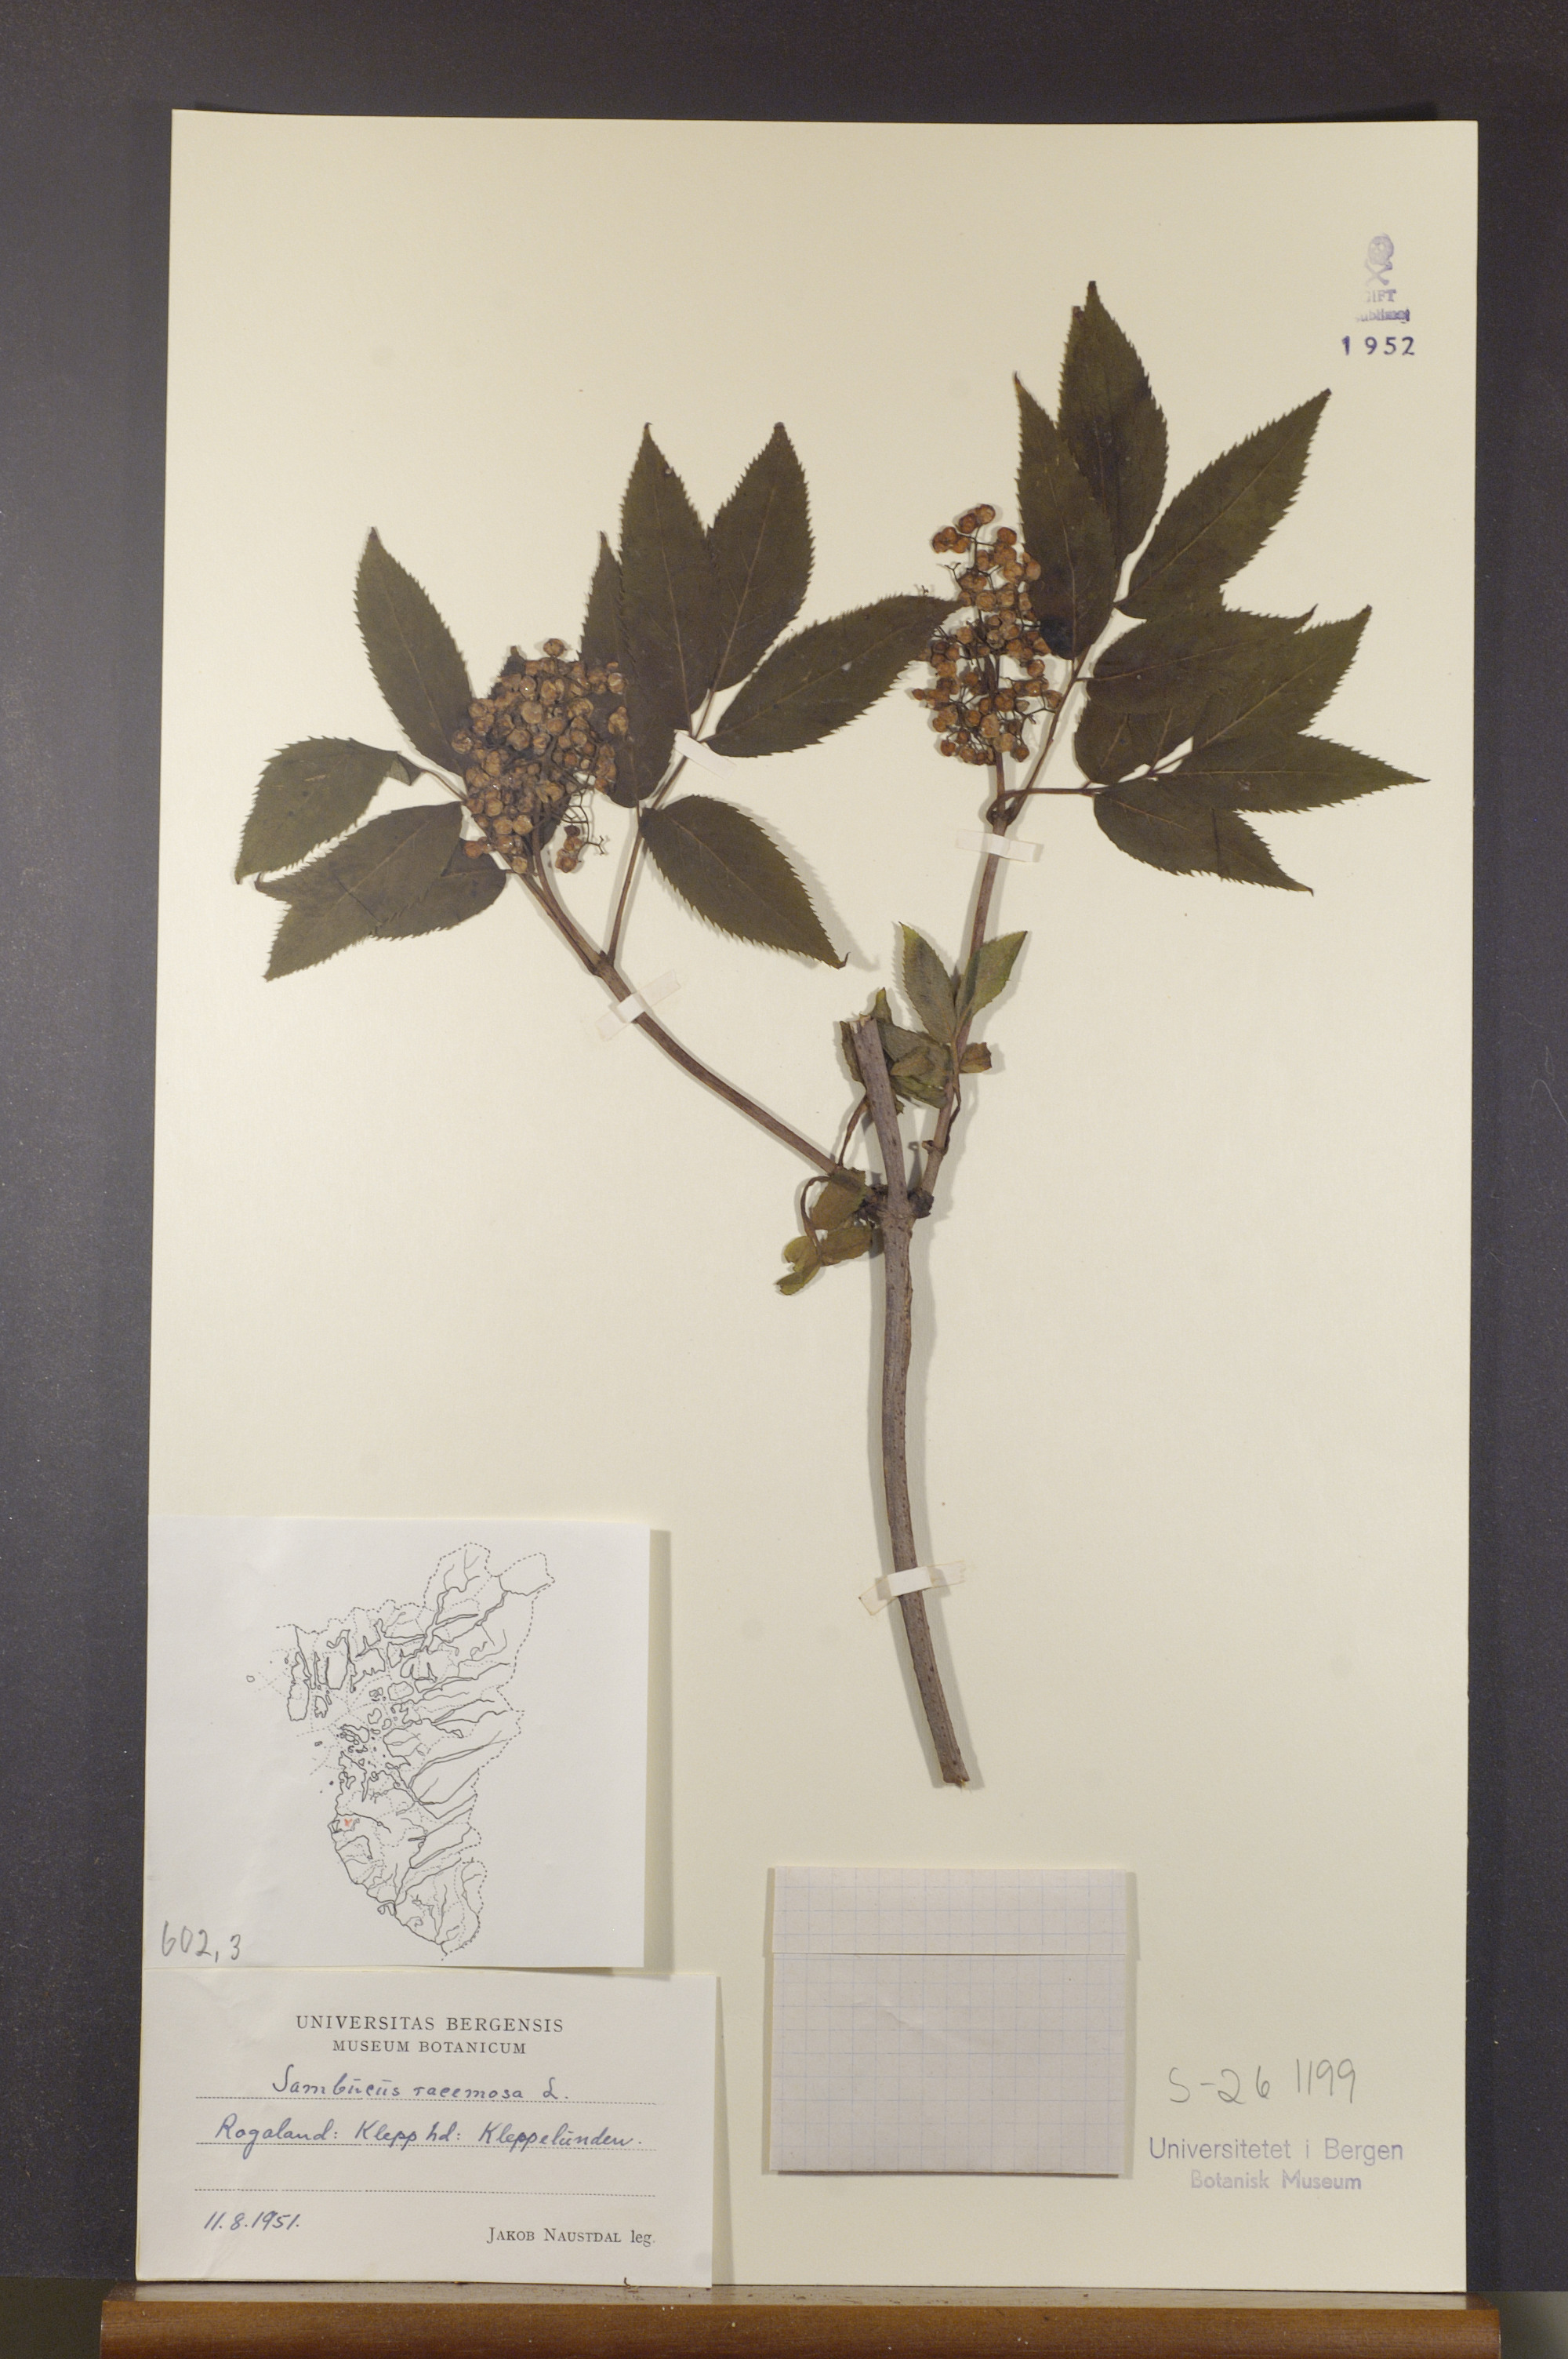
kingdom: Plantae
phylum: Tracheophyta
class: Magnoliopsida
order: Dipsacales
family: Viburnaceae
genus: Sambucus
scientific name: Sambucus racemosa
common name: Red-berried elder
